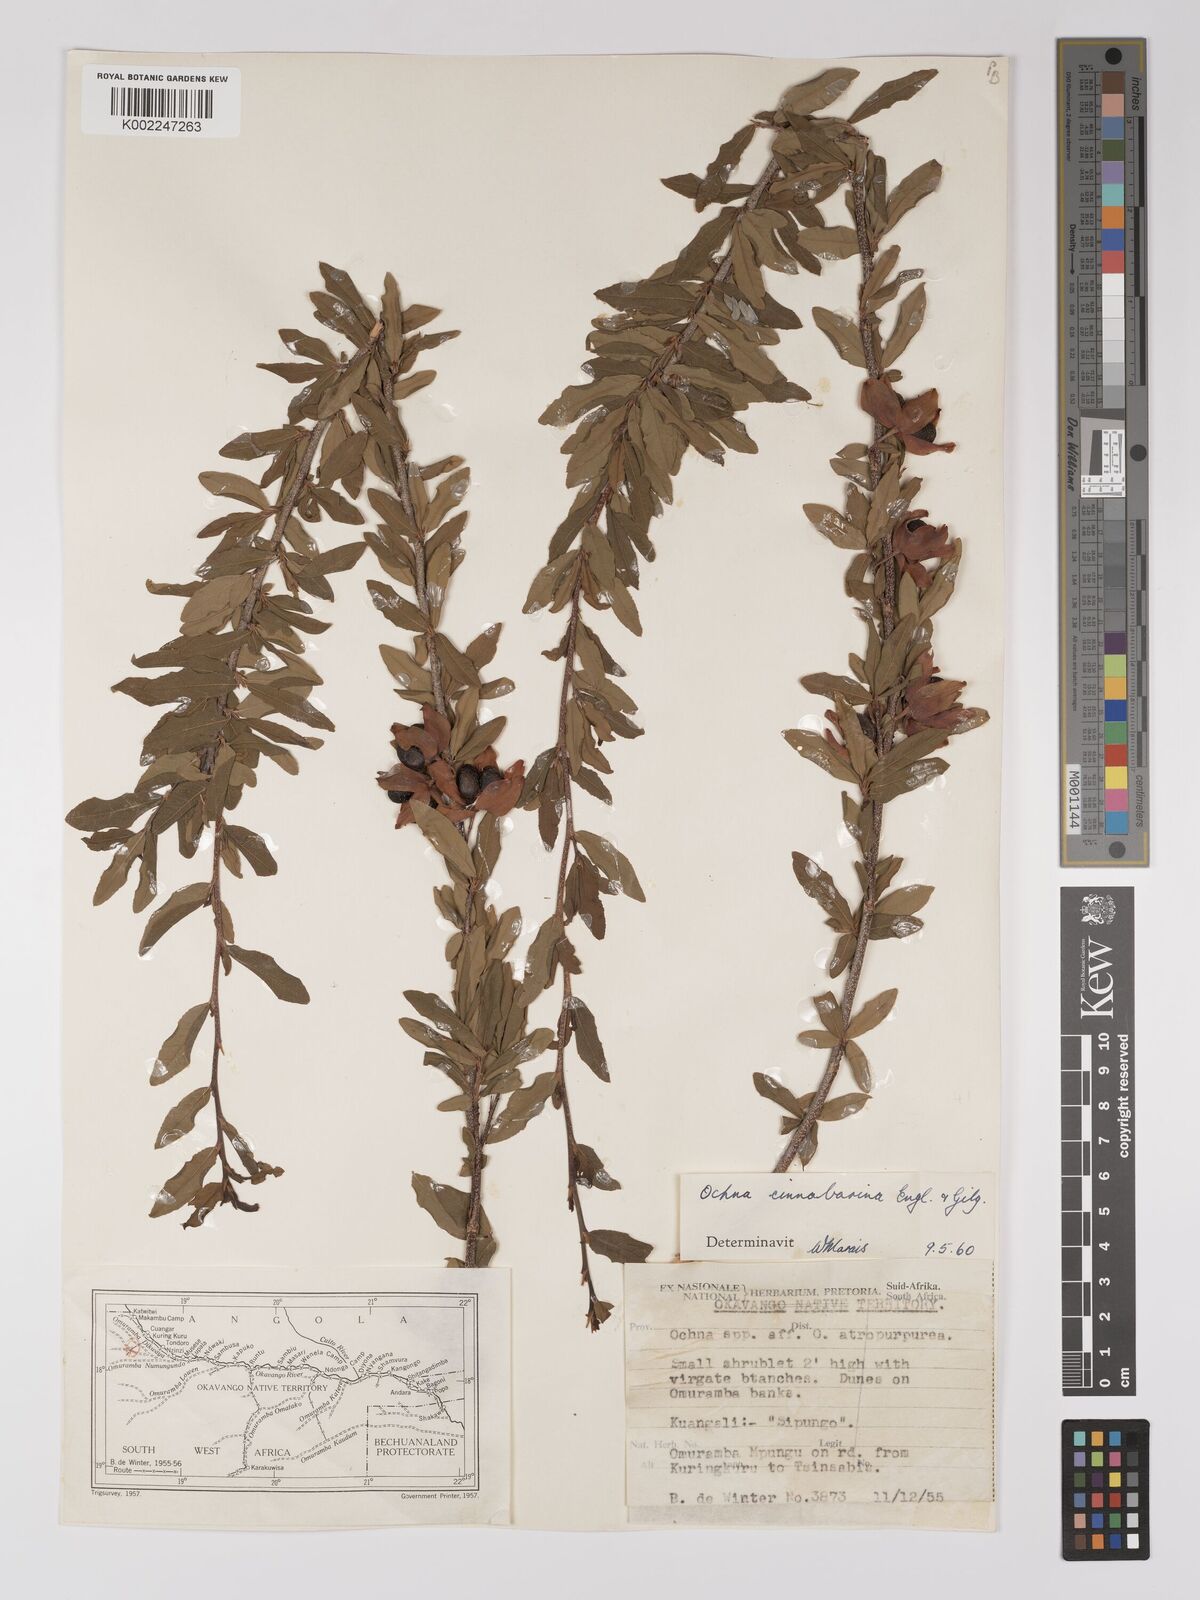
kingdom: Plantae
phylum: Tracheophyta
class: Magnoliopsida
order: Malpighiales
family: Ochnaceae
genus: Ochna
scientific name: Ochna cinnabarina
